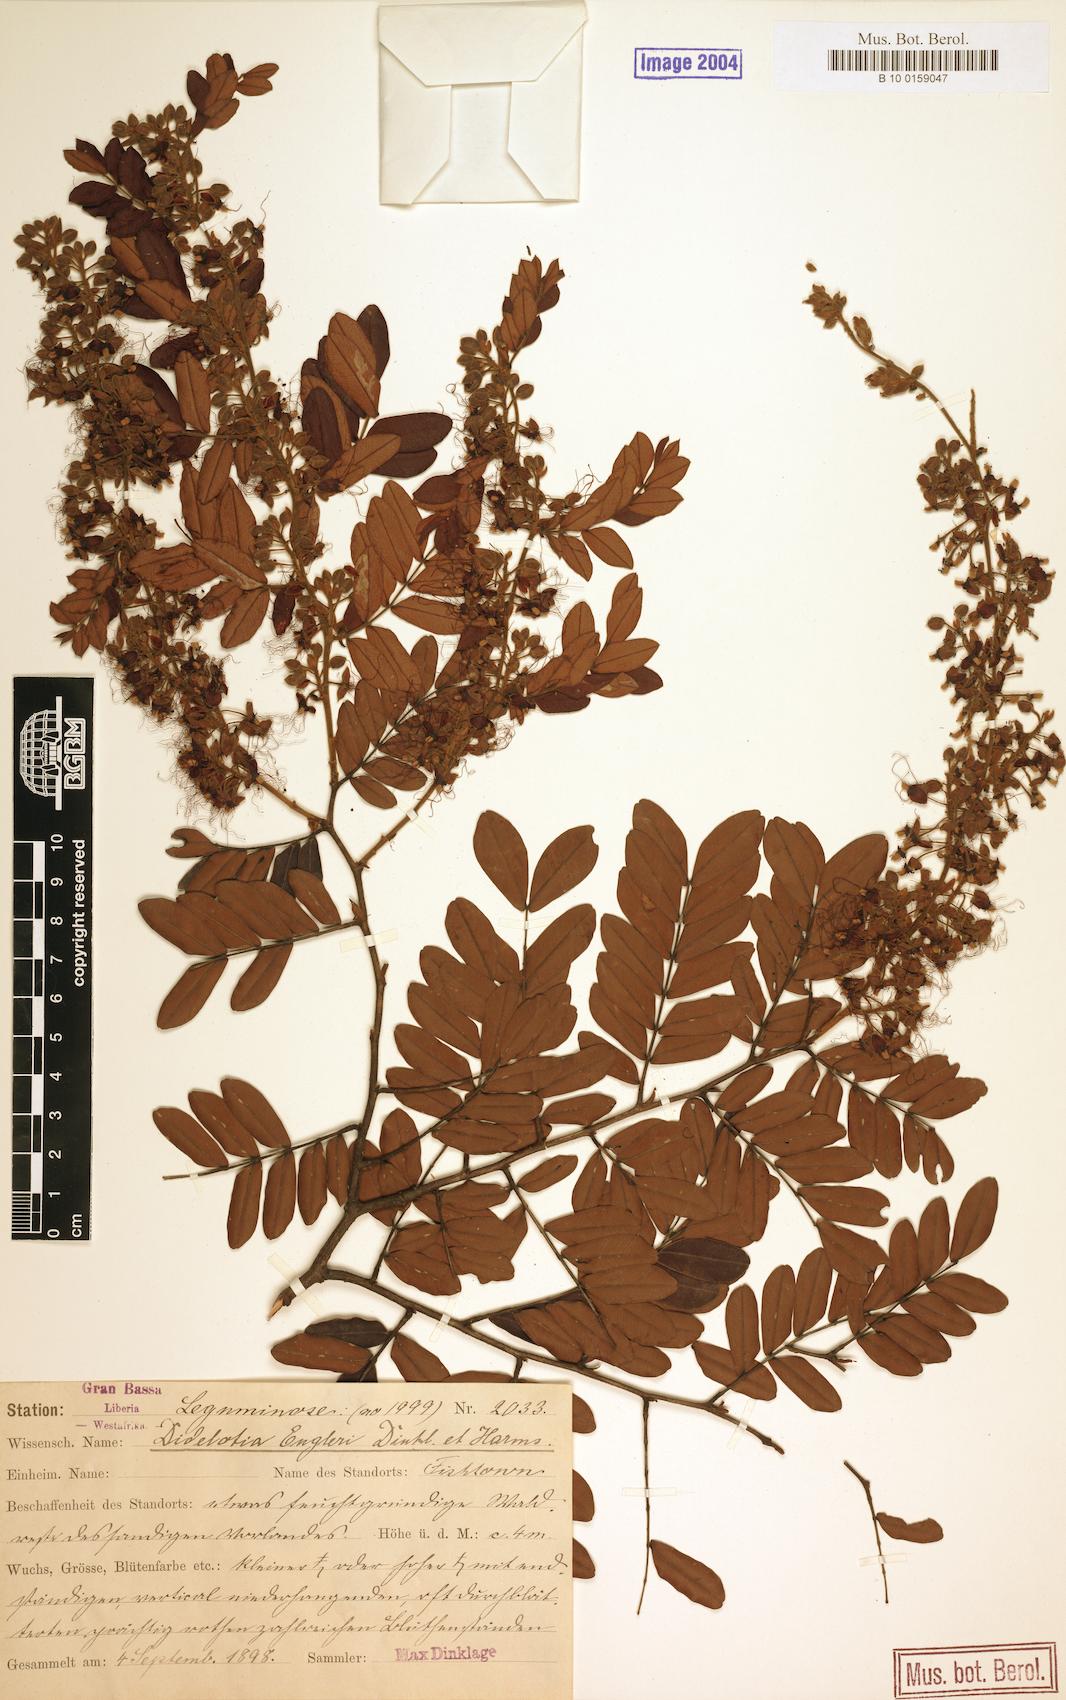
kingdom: Plantae
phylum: Tracheophyta
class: Magnoliopsida
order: Fabales
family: Fabaceae
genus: Didelotia
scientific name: Didelotia engleri
